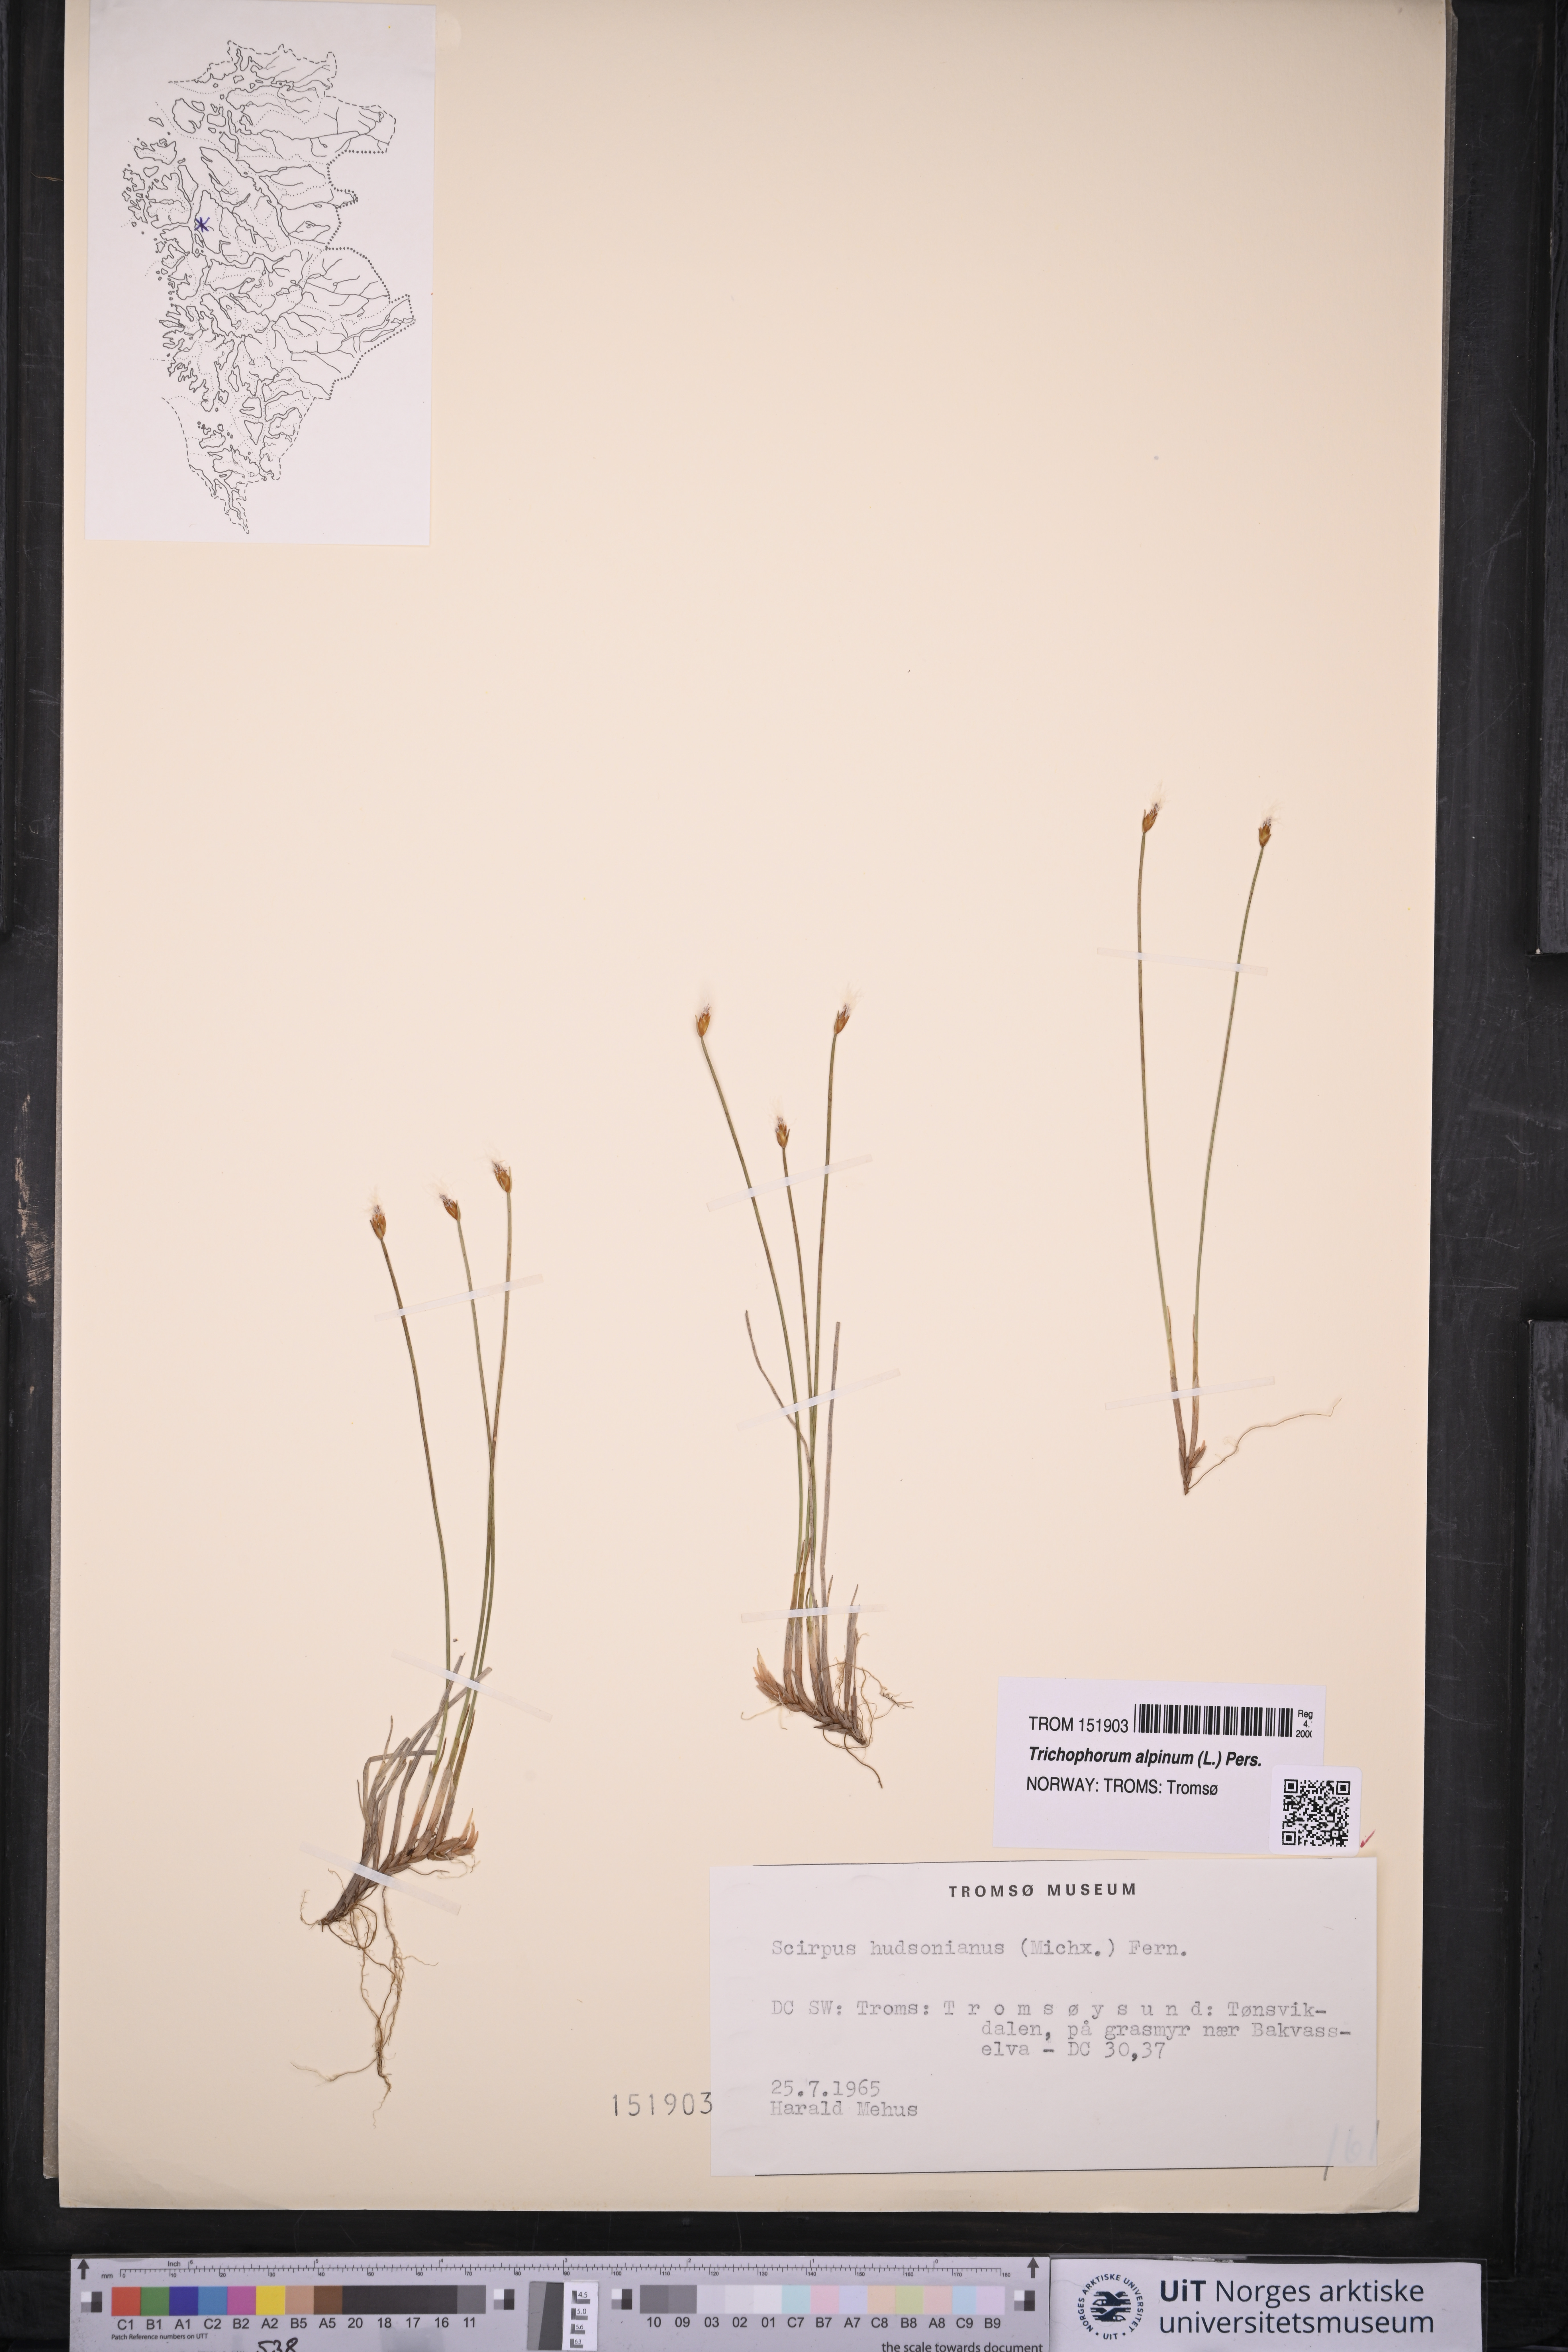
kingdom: Plantae
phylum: Tracheophyta
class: Liliopsida
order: Poales
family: Cyperaceae
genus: Trichophorum
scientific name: Trichophorum alpinum
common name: Alpine bulrush
